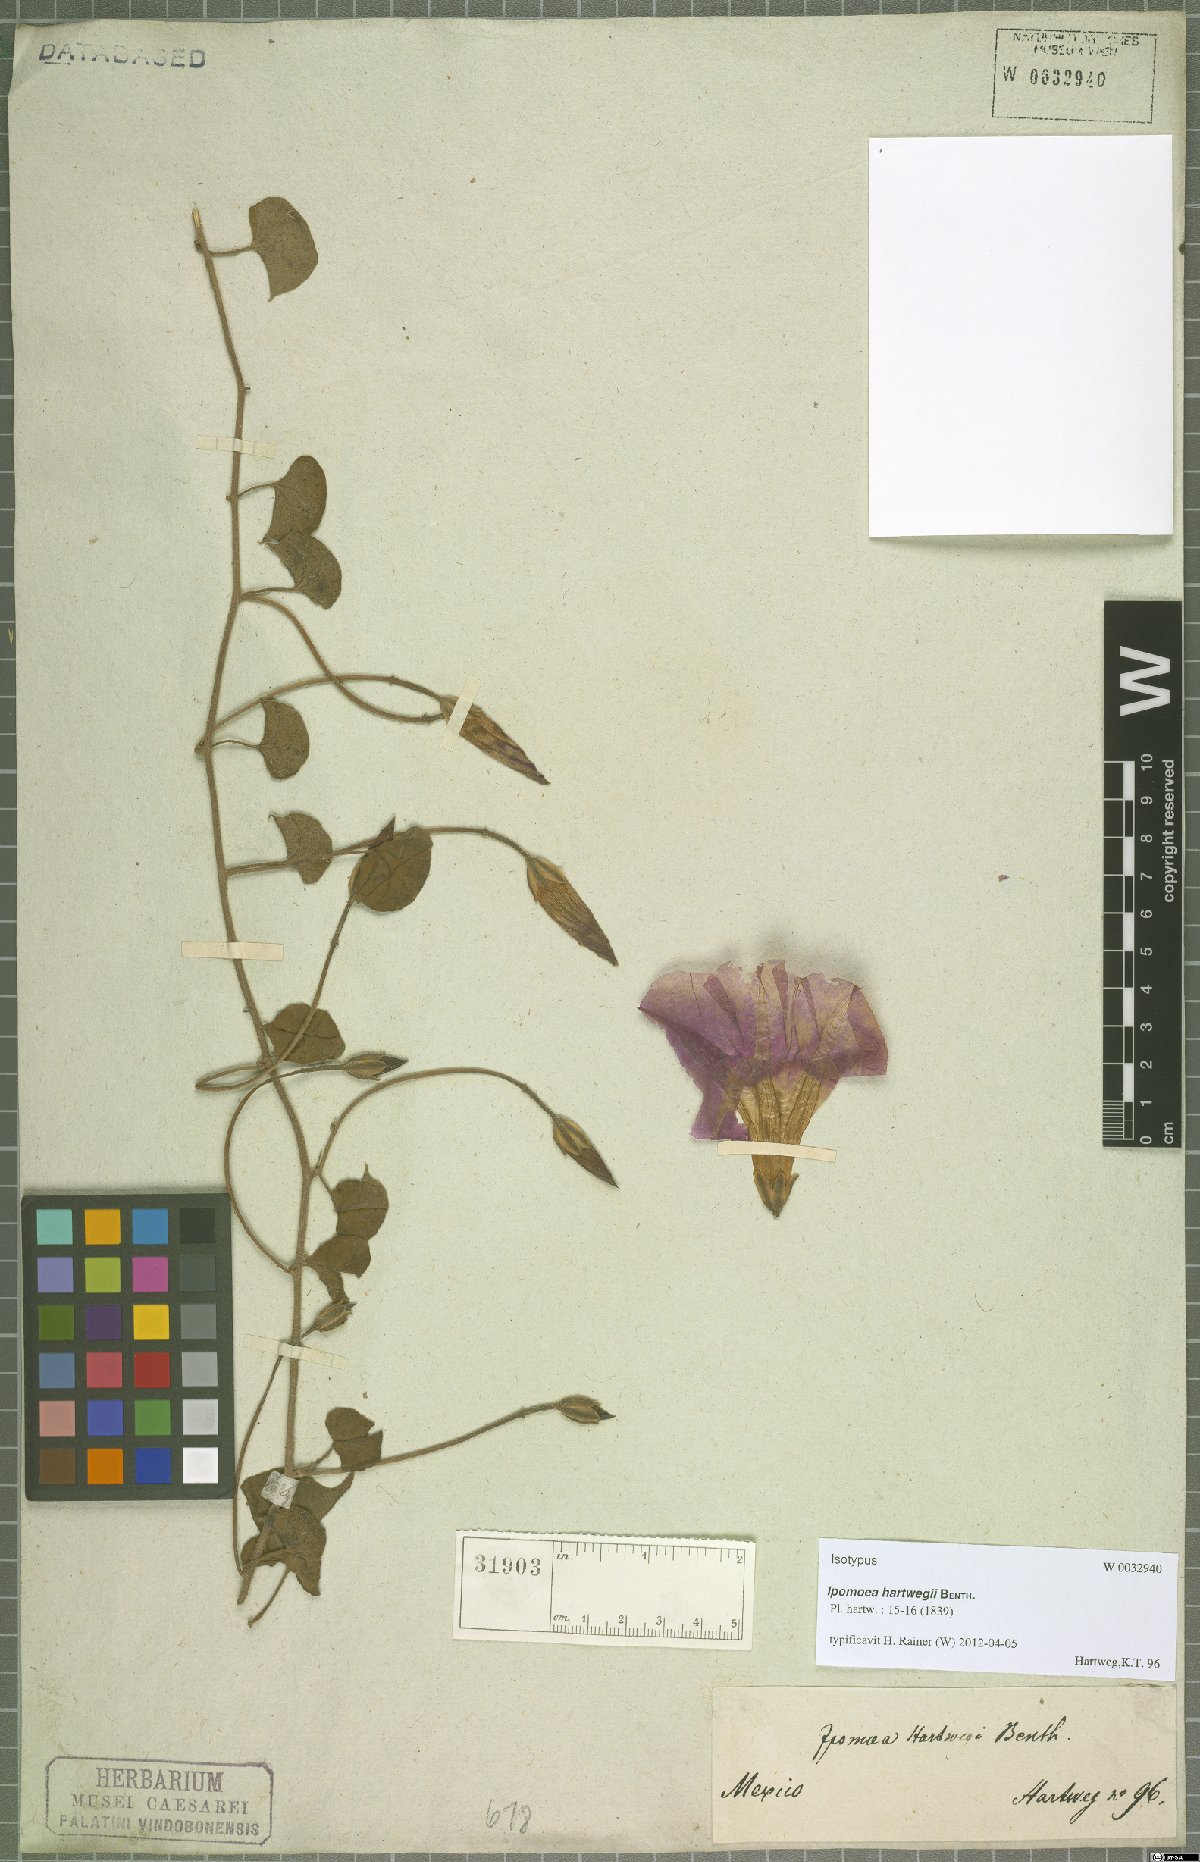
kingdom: Plantae
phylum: Tracheophyta
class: Magnoliopsida
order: Solanales
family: Convolvulaceae
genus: Ipomoea
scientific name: Ipomoea hartwegii
